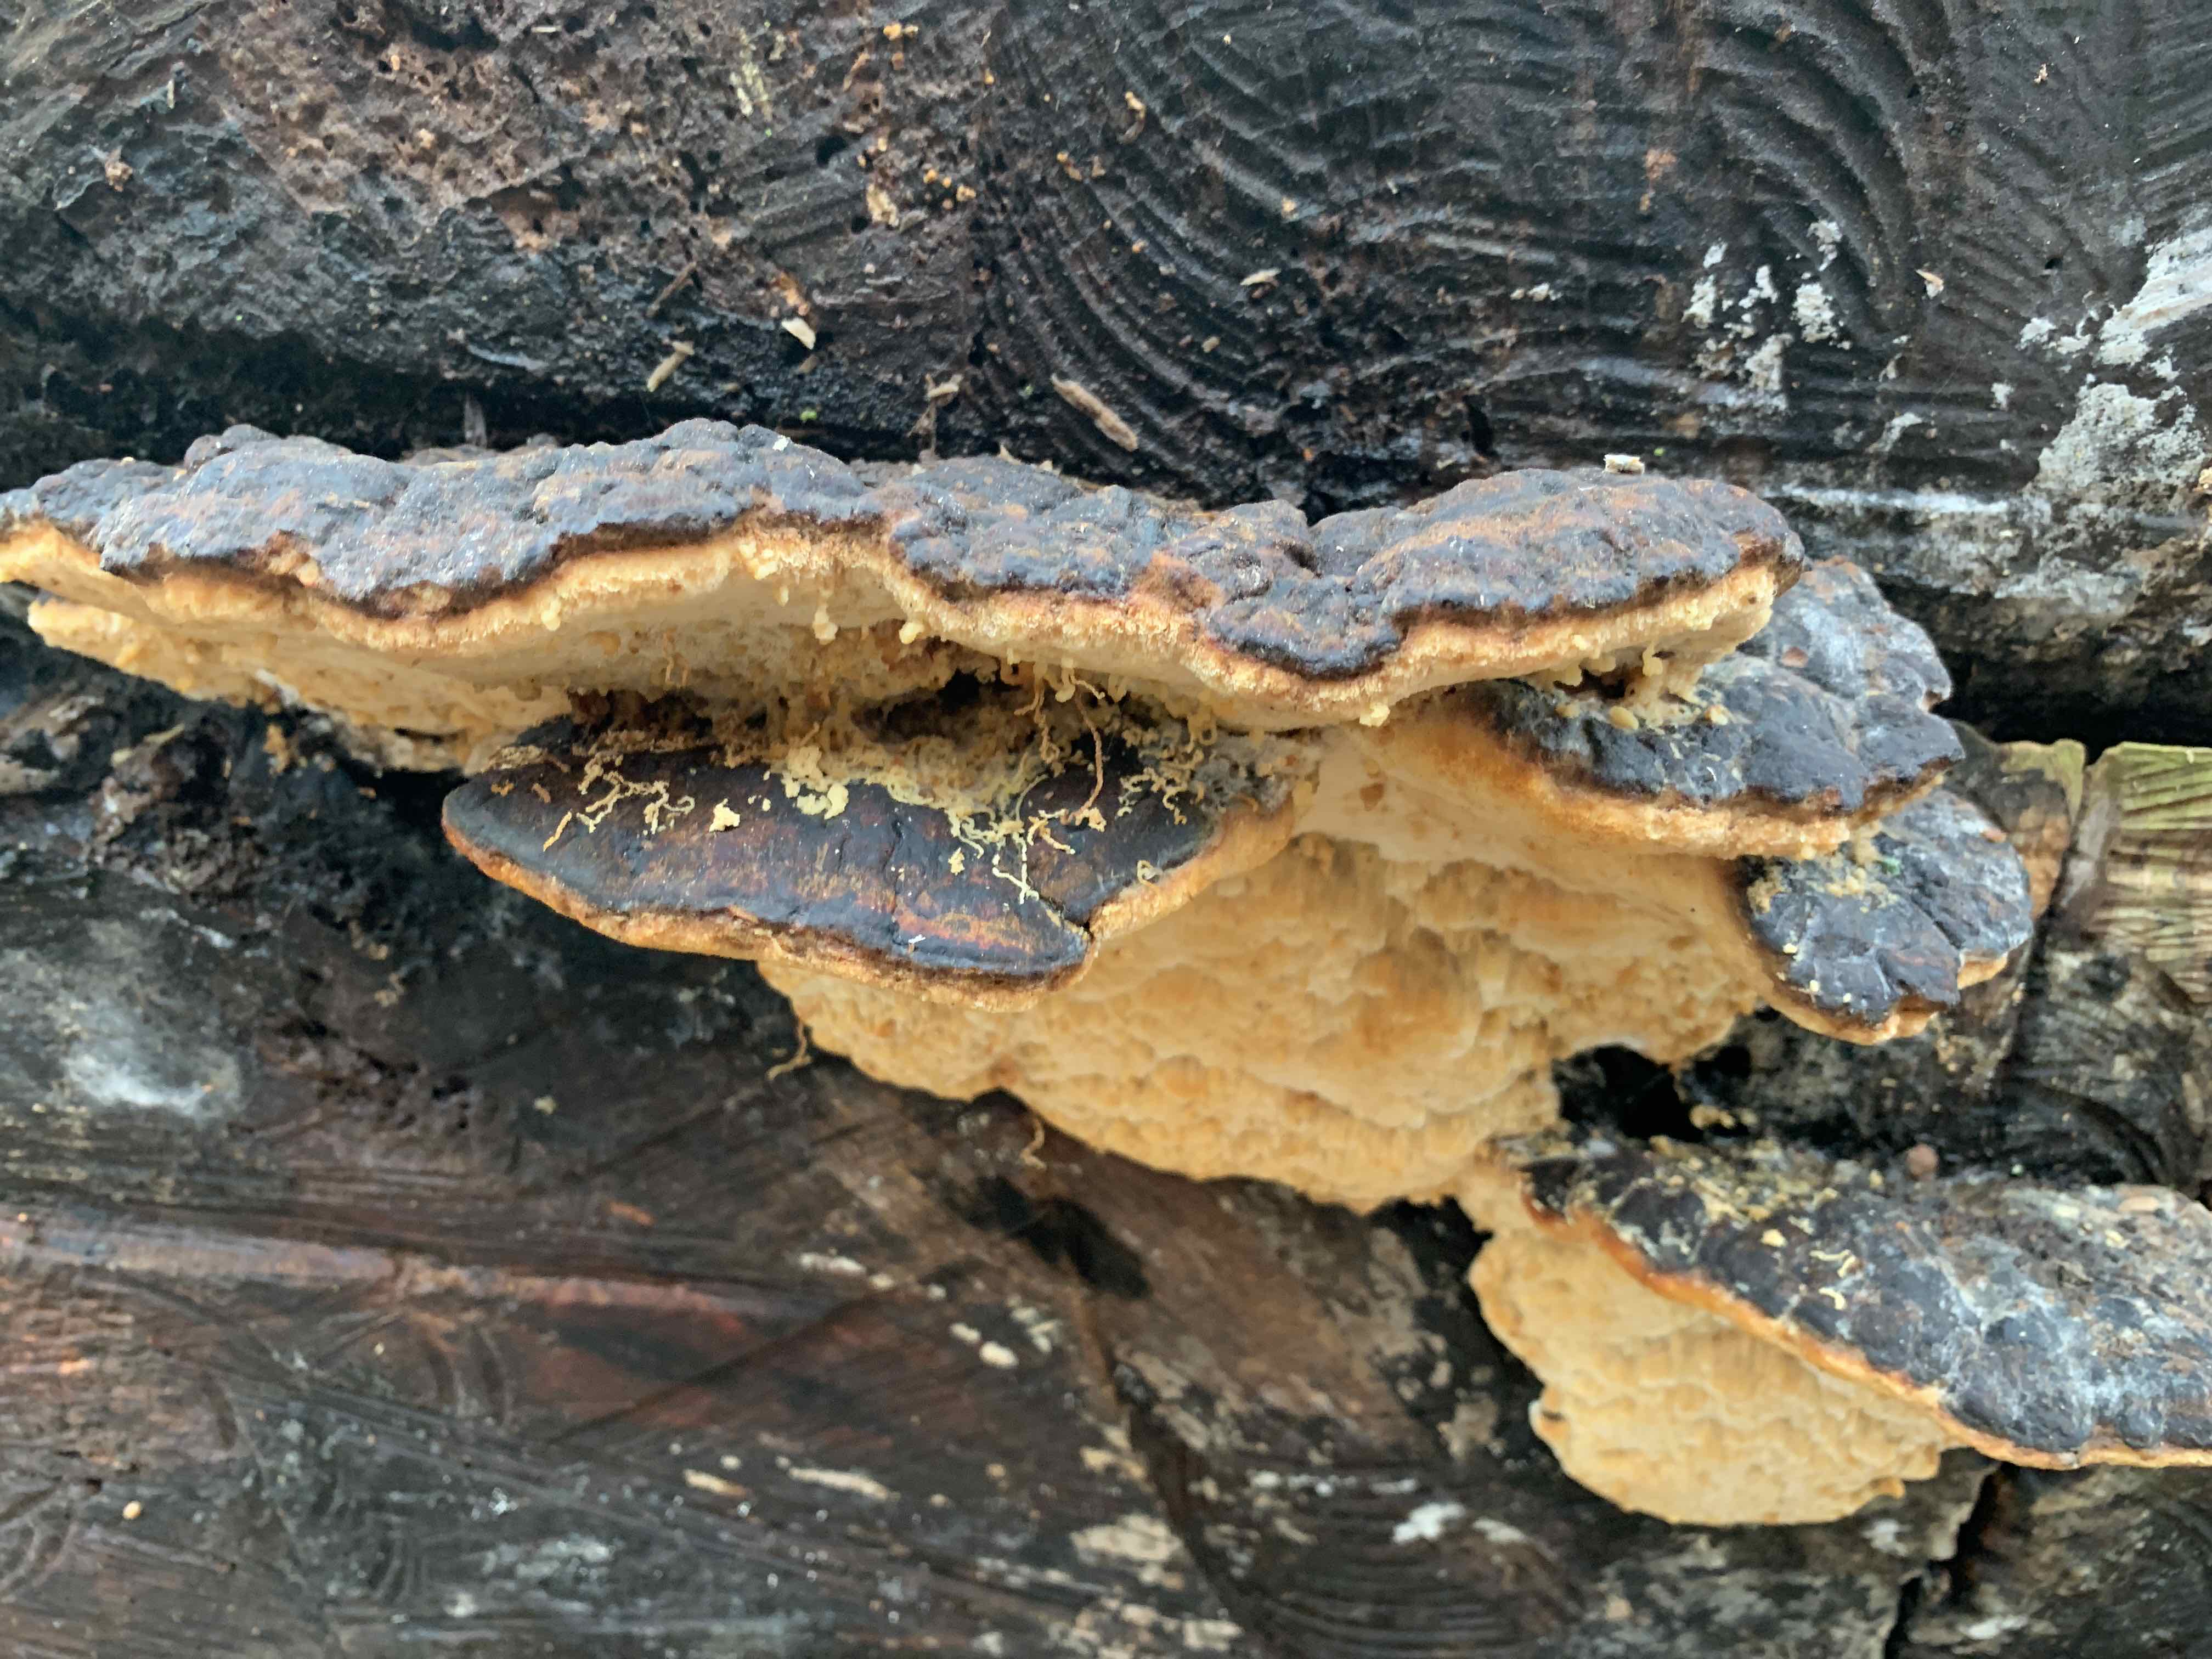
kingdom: Fungi
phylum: Basidiomycota
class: Agaricomycetes
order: Polyporales
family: Ischnodermataceae
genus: Ischnoderma
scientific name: Ischnoderma resinosum
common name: løv-tjæreporesvamp
